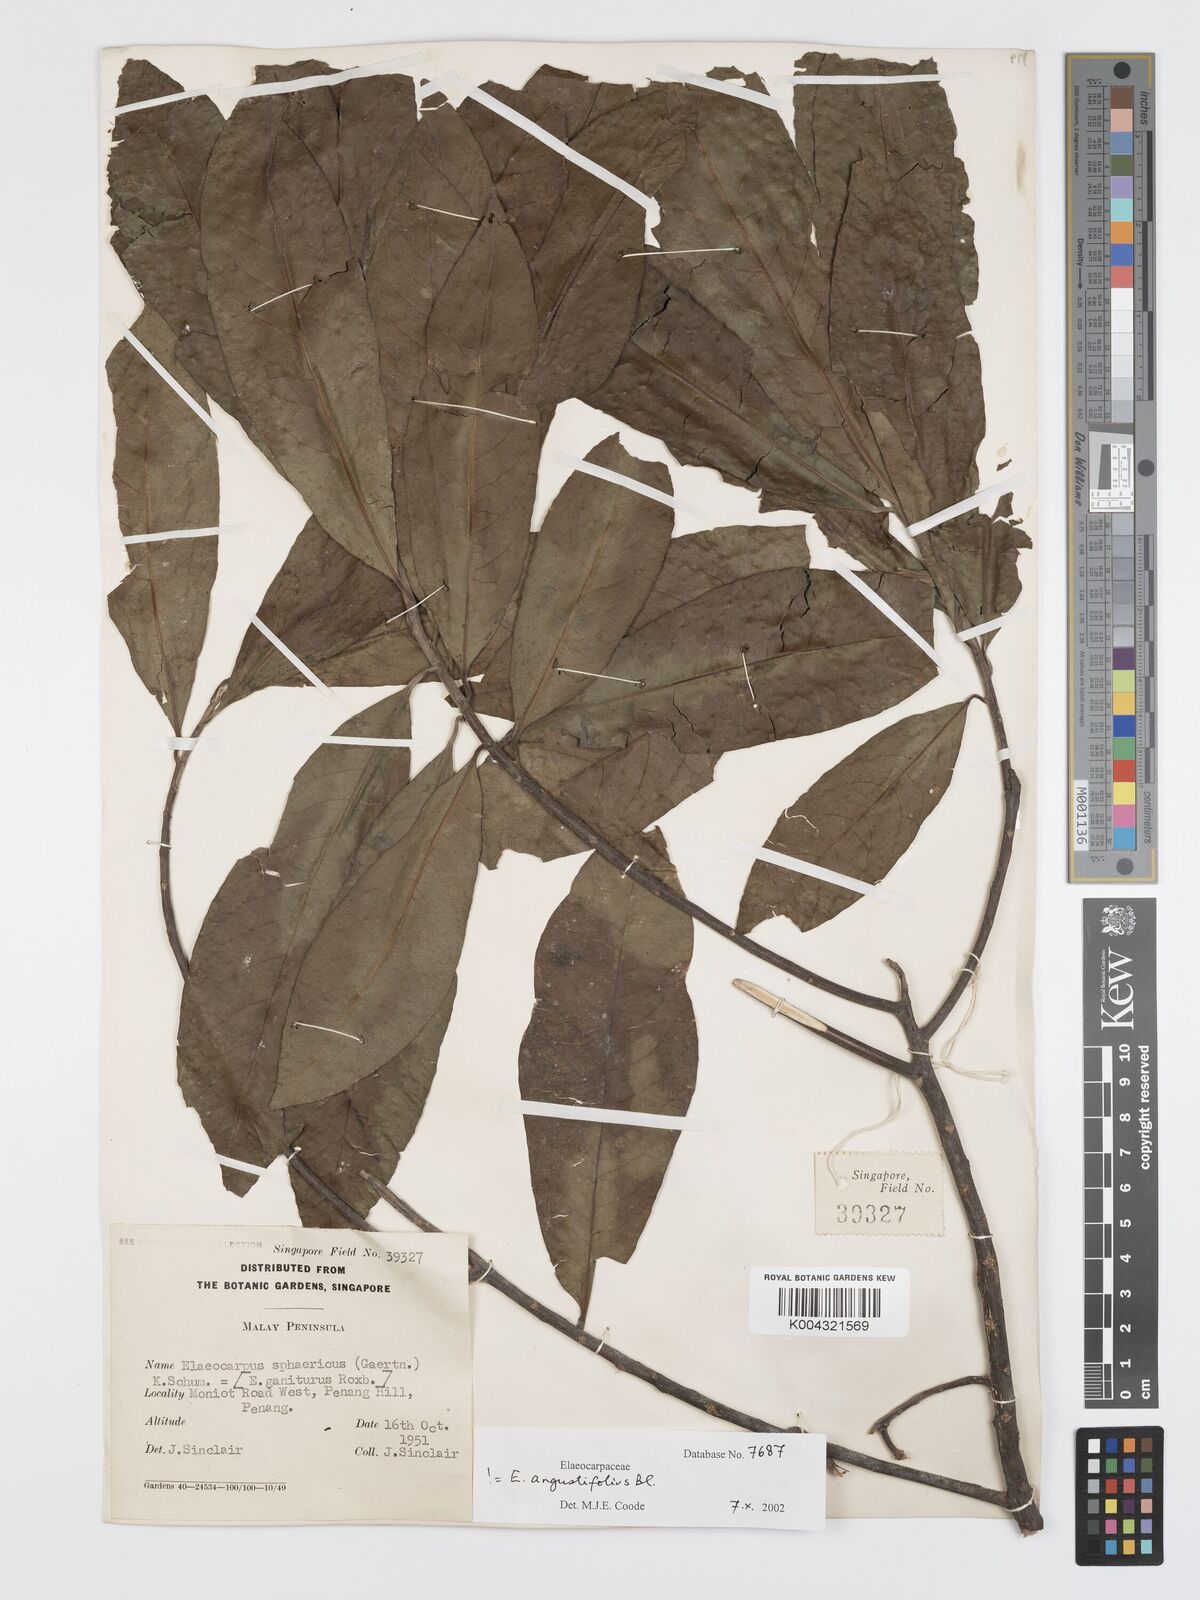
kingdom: Plantae
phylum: Tracheophyta
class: Magnoliopsida
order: Oxalidales
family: Elaeocarpaceae
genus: Elaeocarpus
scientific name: Elaeocarpus sphaericus
